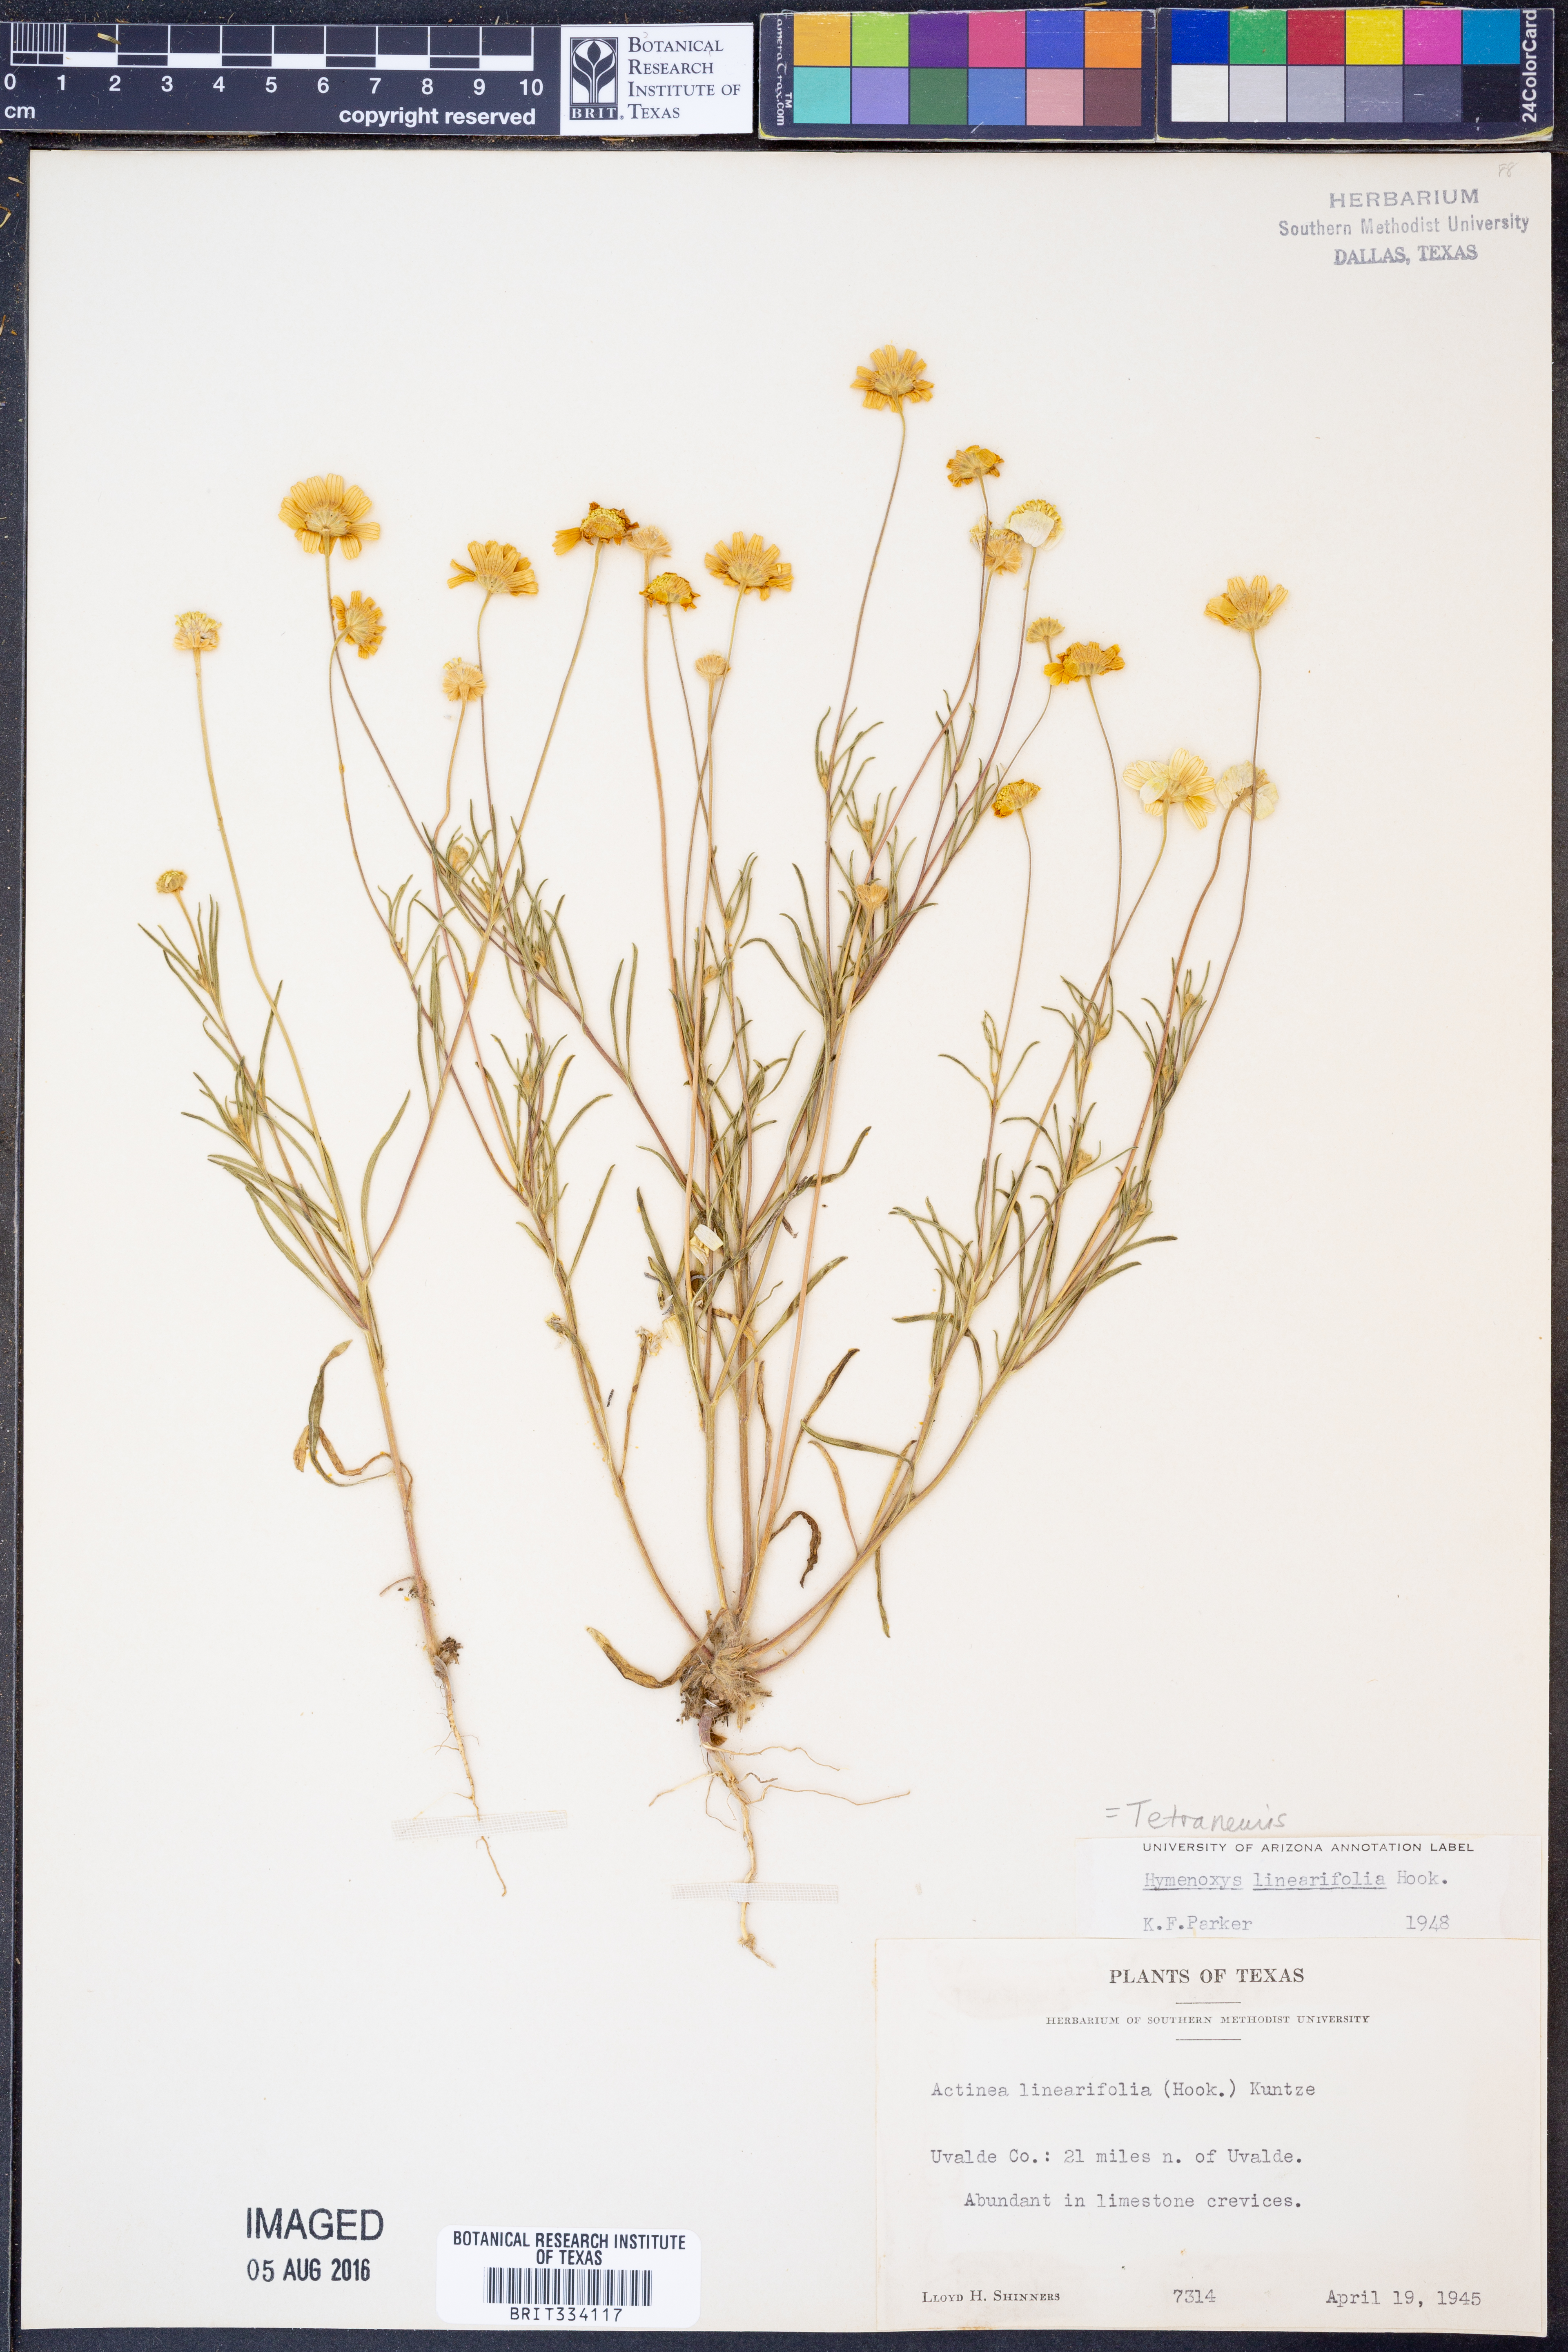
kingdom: Plantae
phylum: Tracheophyta
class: Magnoliopsida
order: Asterales
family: Asteraceae
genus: Tetraneuris
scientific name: Tetraneuris linearifolia
